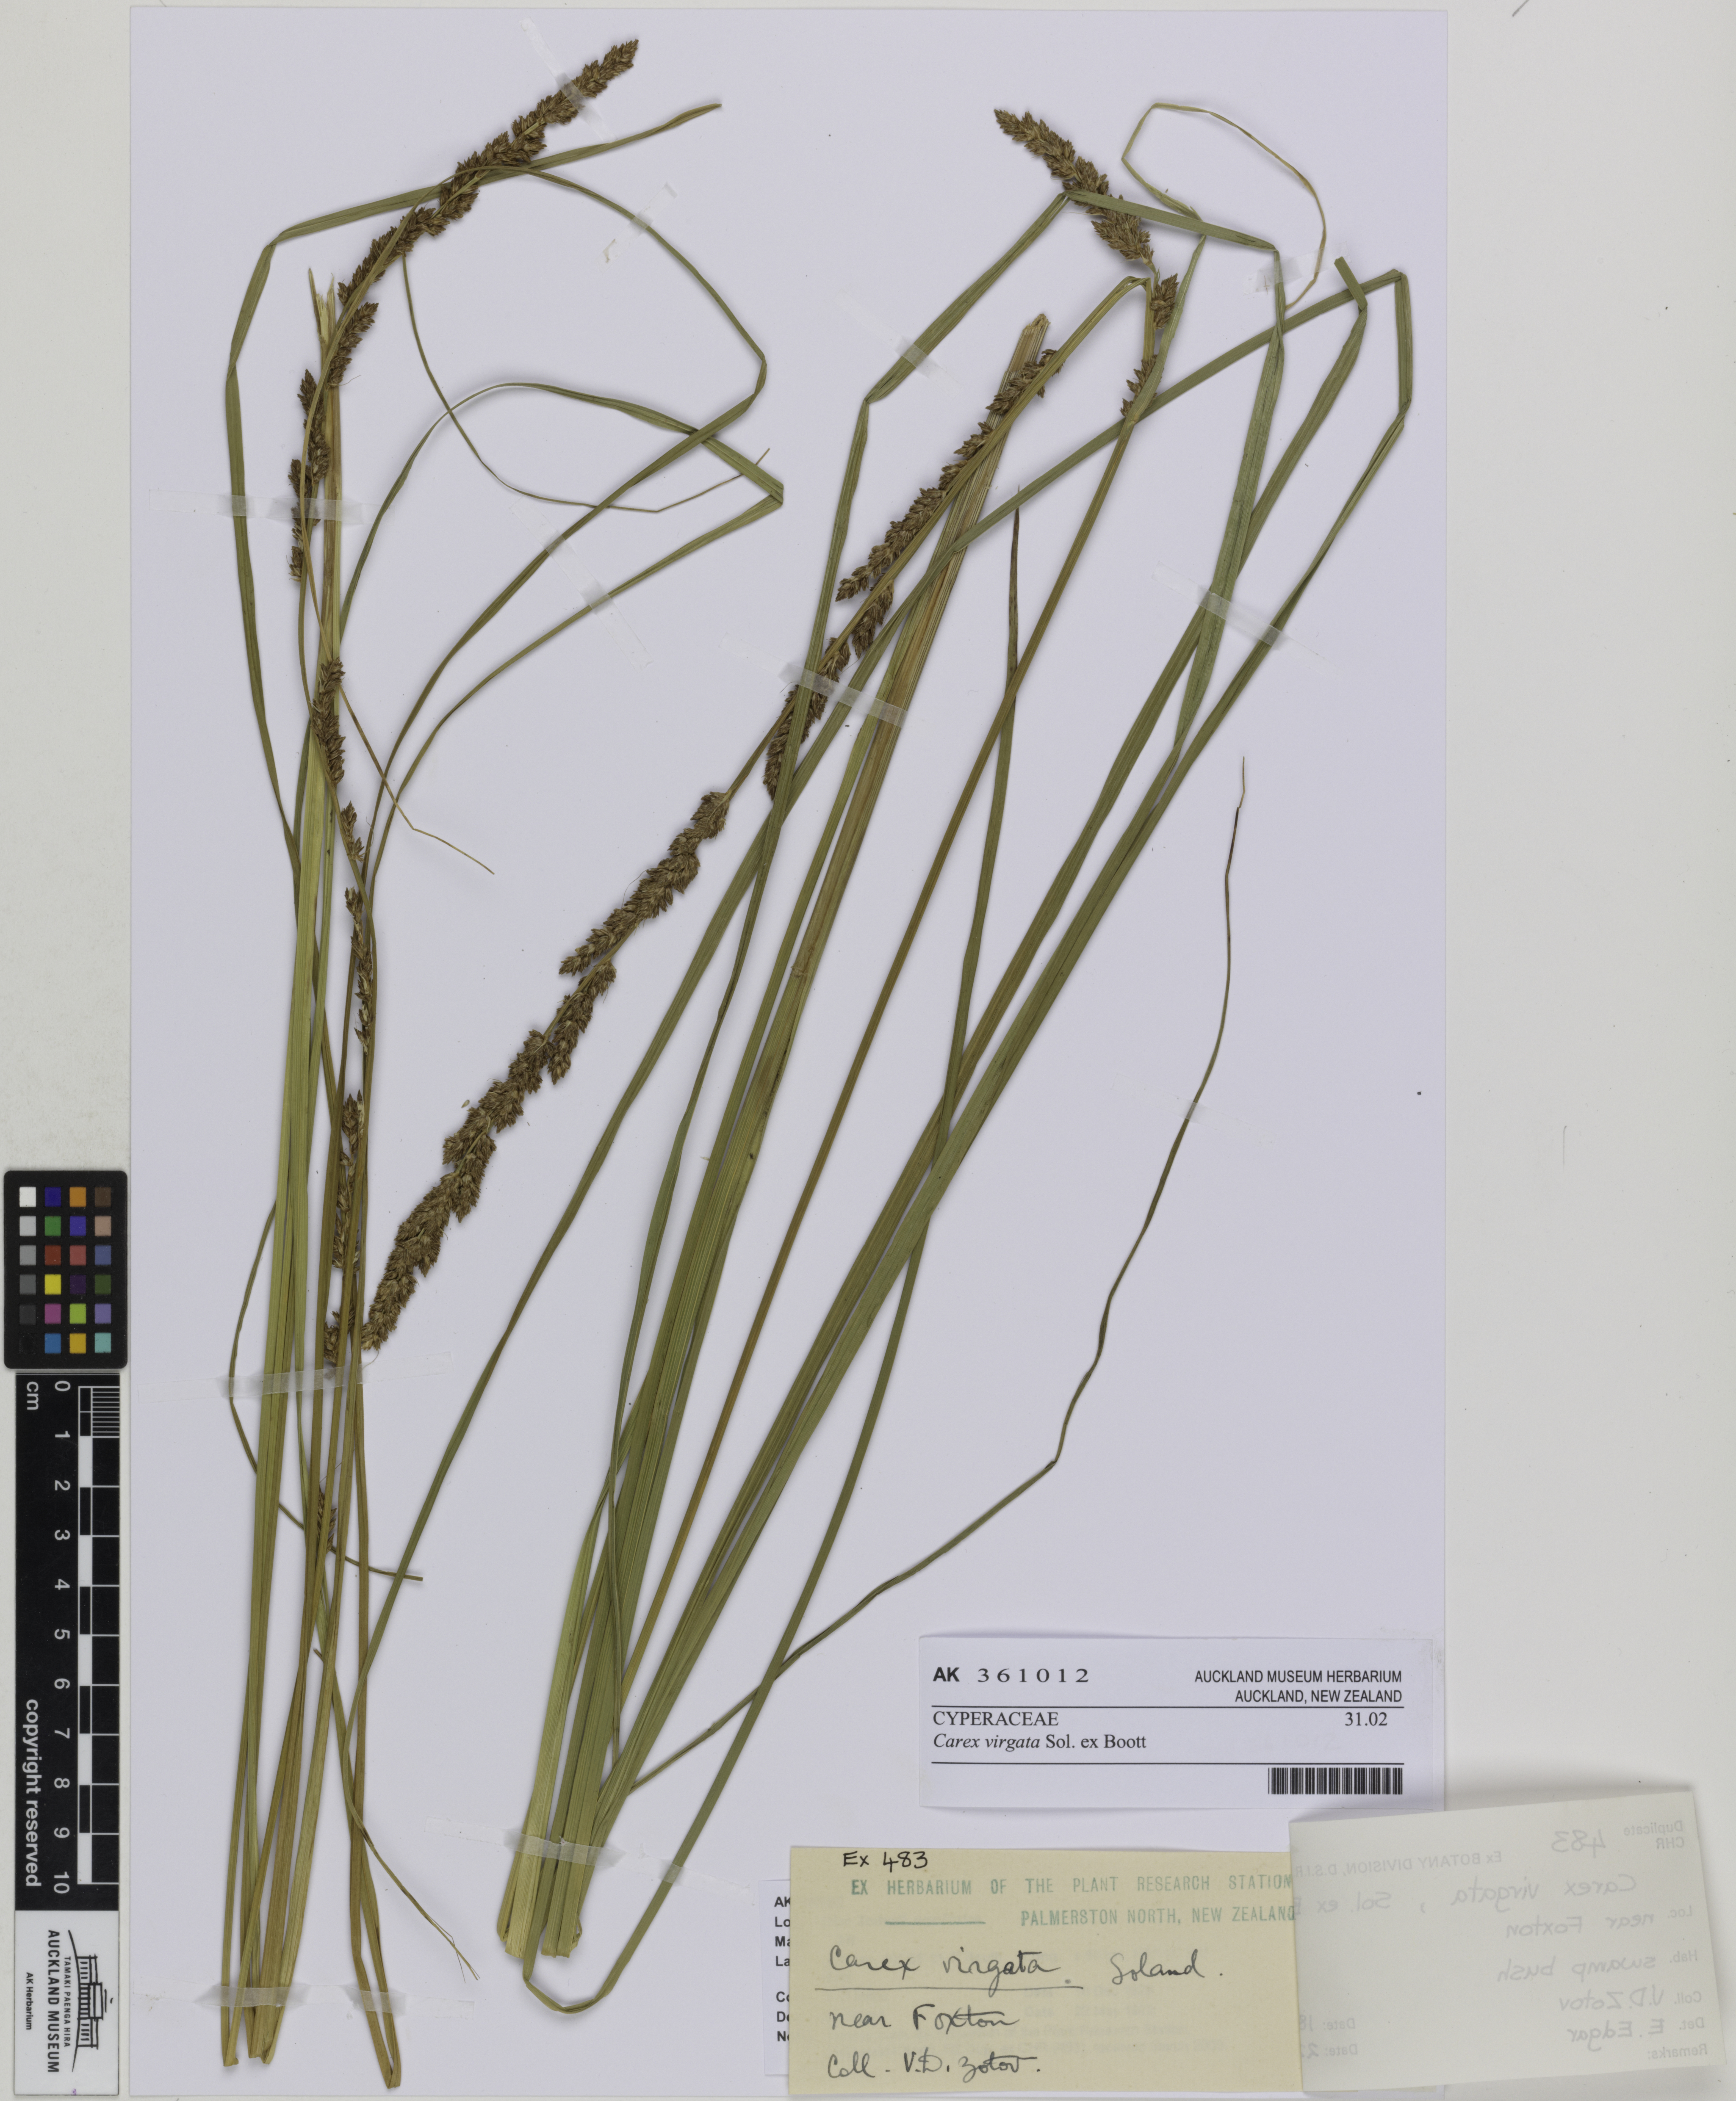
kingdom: Plantae
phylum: Tracheophyta
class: Liliopsida
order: Poales
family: Cyperaceae
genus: Carex
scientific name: Carex appressa
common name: Tussock sedge
